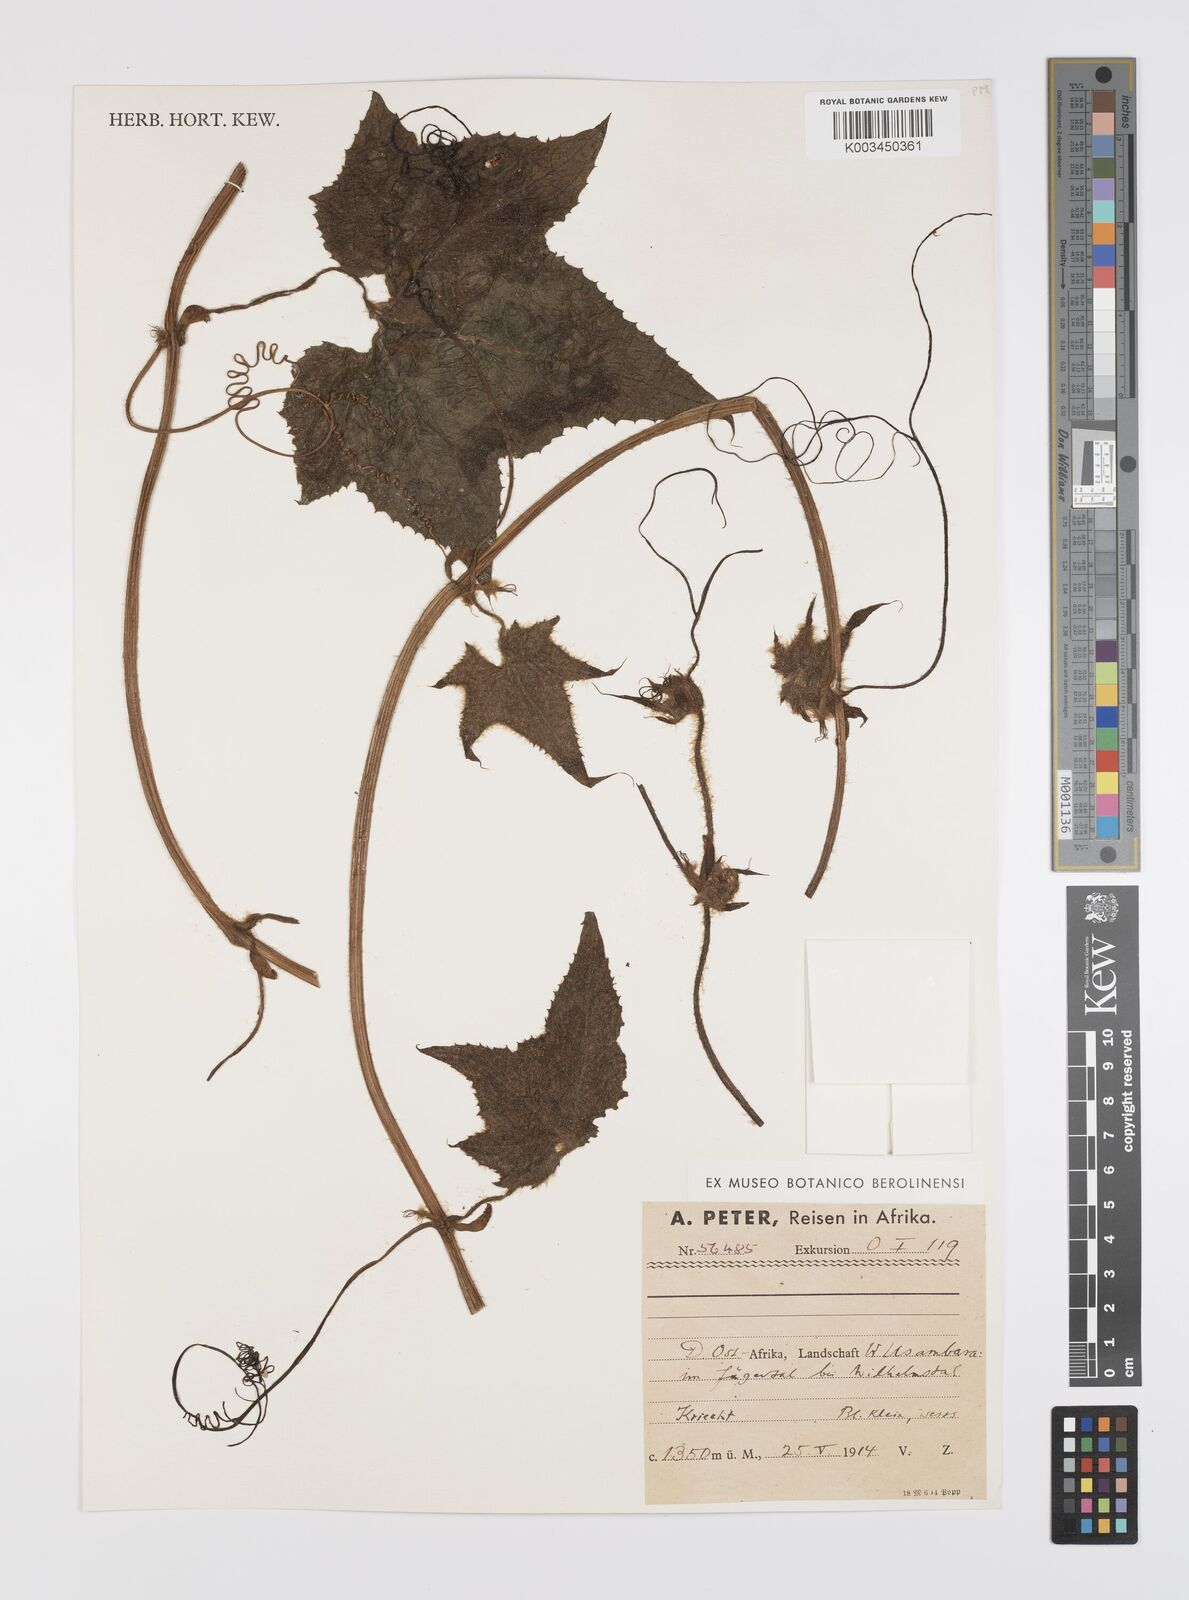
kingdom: Plantae
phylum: Tracheophyta
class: Magnoliopsida
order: Cucurbitales
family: Cucurbitaceae
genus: Peponium
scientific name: Peponium vogelii
